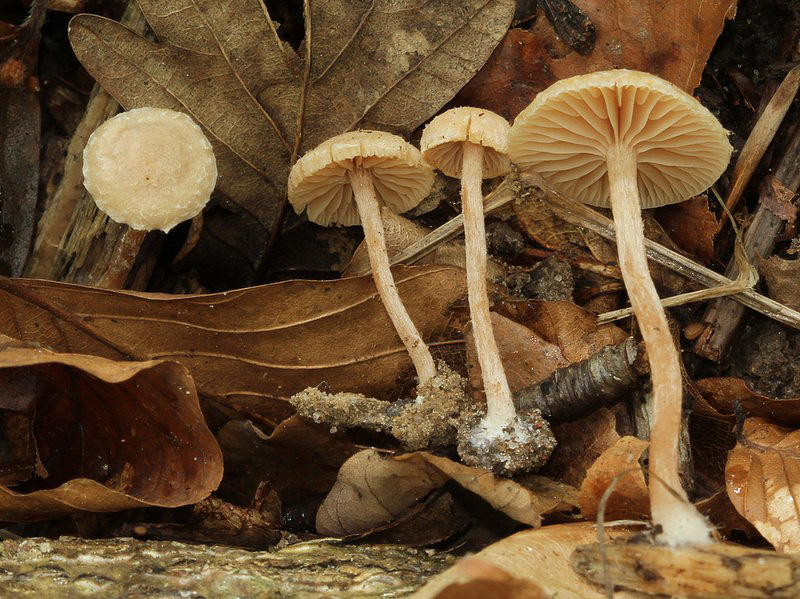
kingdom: Fungi
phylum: Basidiomycota
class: Agaricomycetes
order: Agaricales
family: Tubariaceae
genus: Tubaria
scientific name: Tubaria conspersa
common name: bleg fnughat
